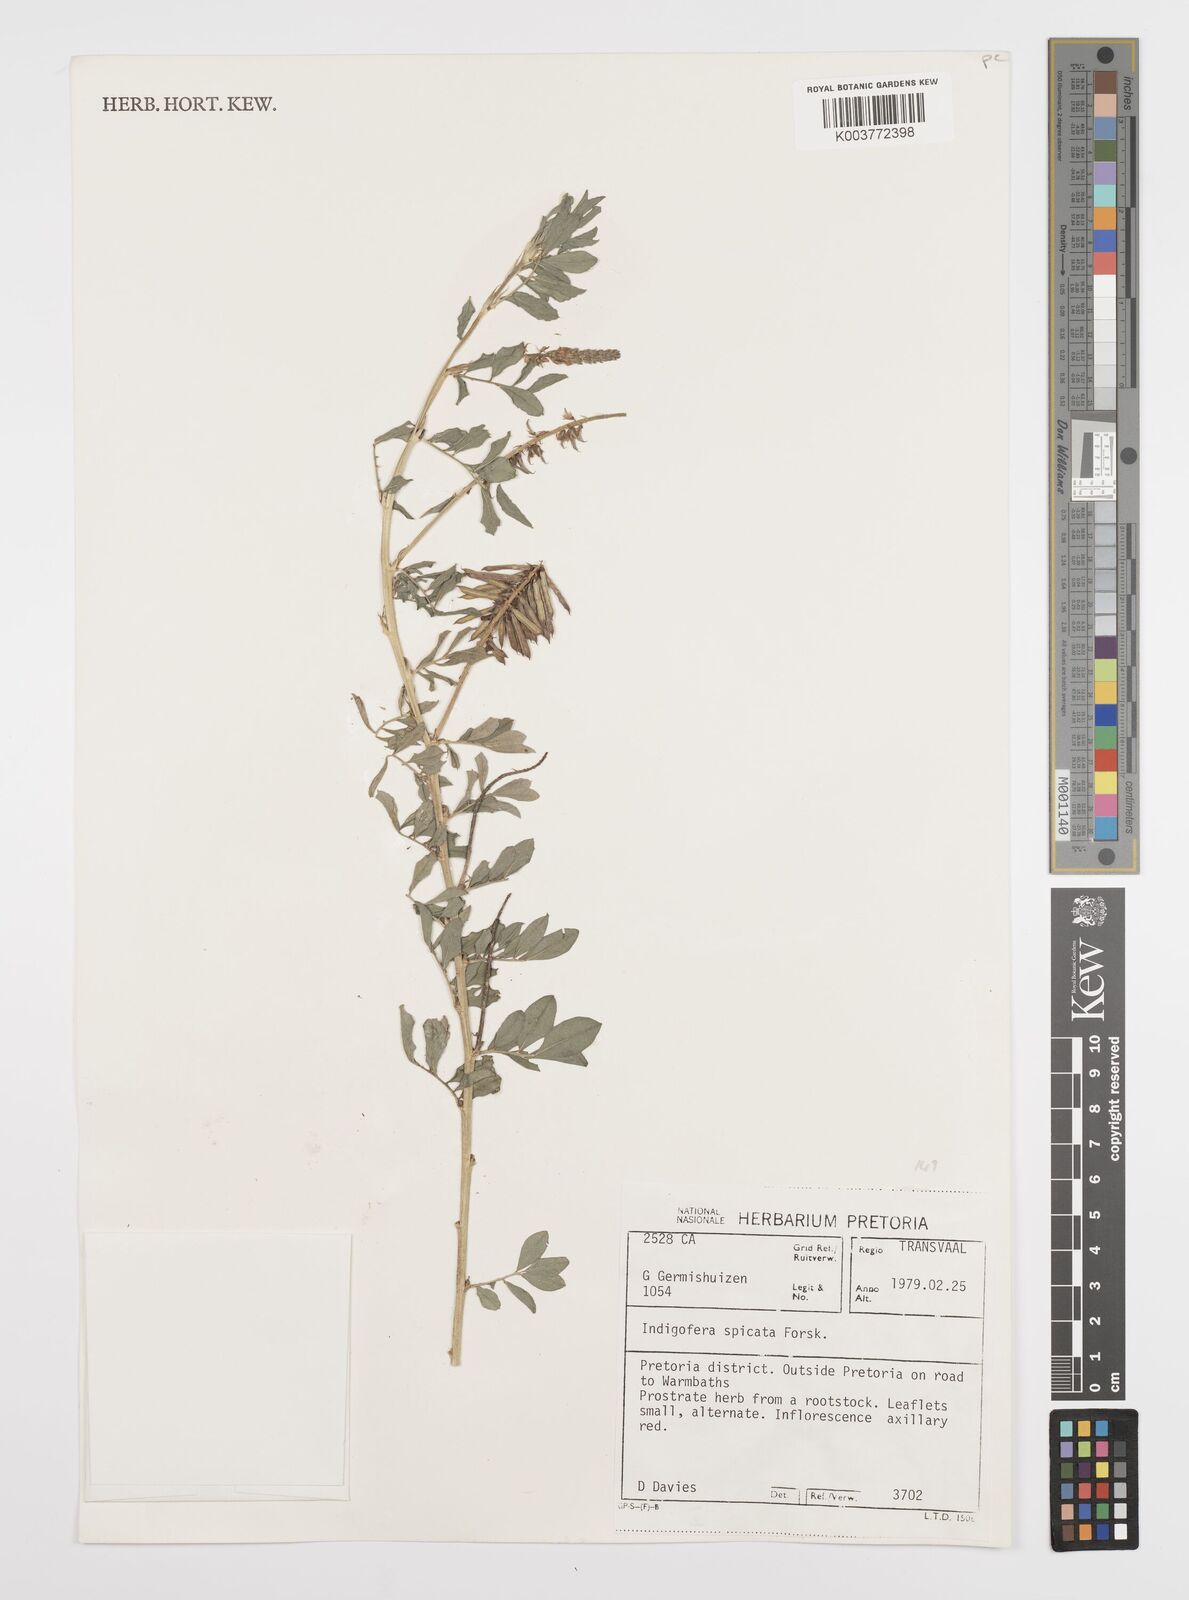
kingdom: Plantae
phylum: Tracheophyta
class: Magnoliopsida
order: Fabales
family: Fabaceae
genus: Indigofera
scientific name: Indigofera spicata
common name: Creeping indigo
